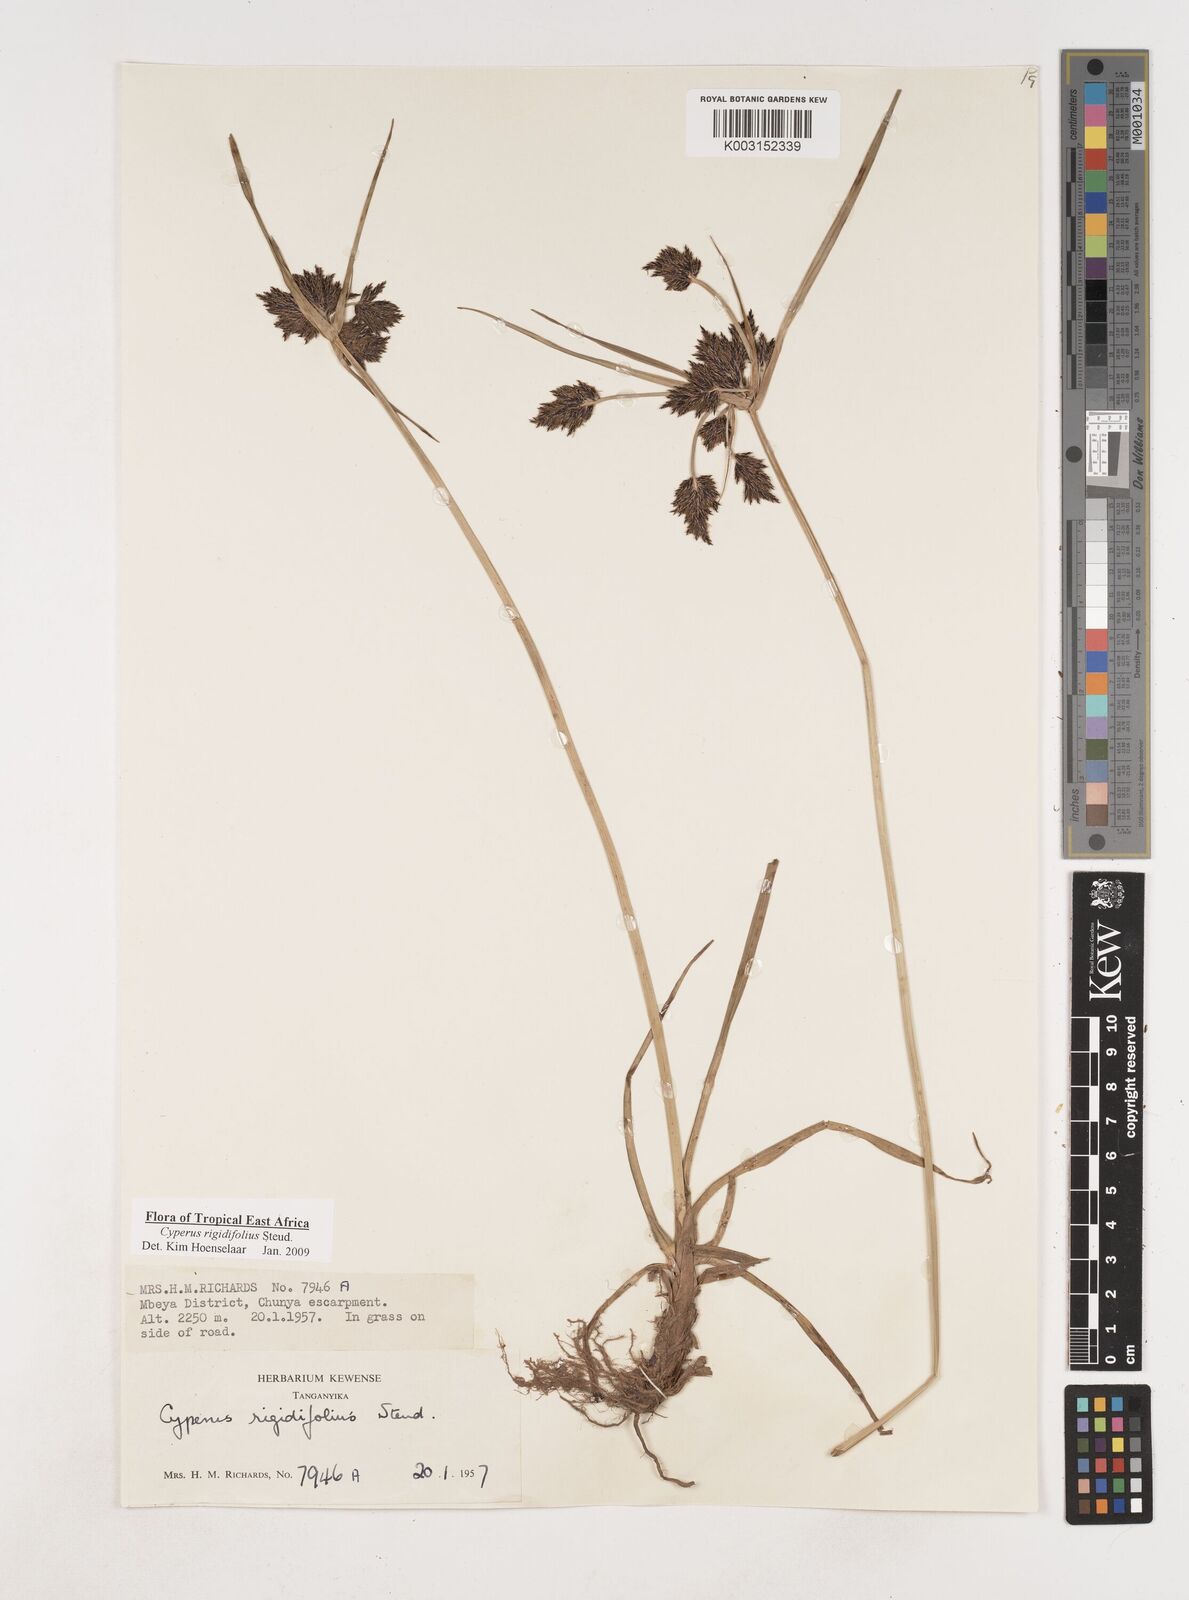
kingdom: Plantae
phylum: Tracheophyta
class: Liliopsida
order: Poales
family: Cyperaceae
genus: Cyperus
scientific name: Cyperus rigidifolius
